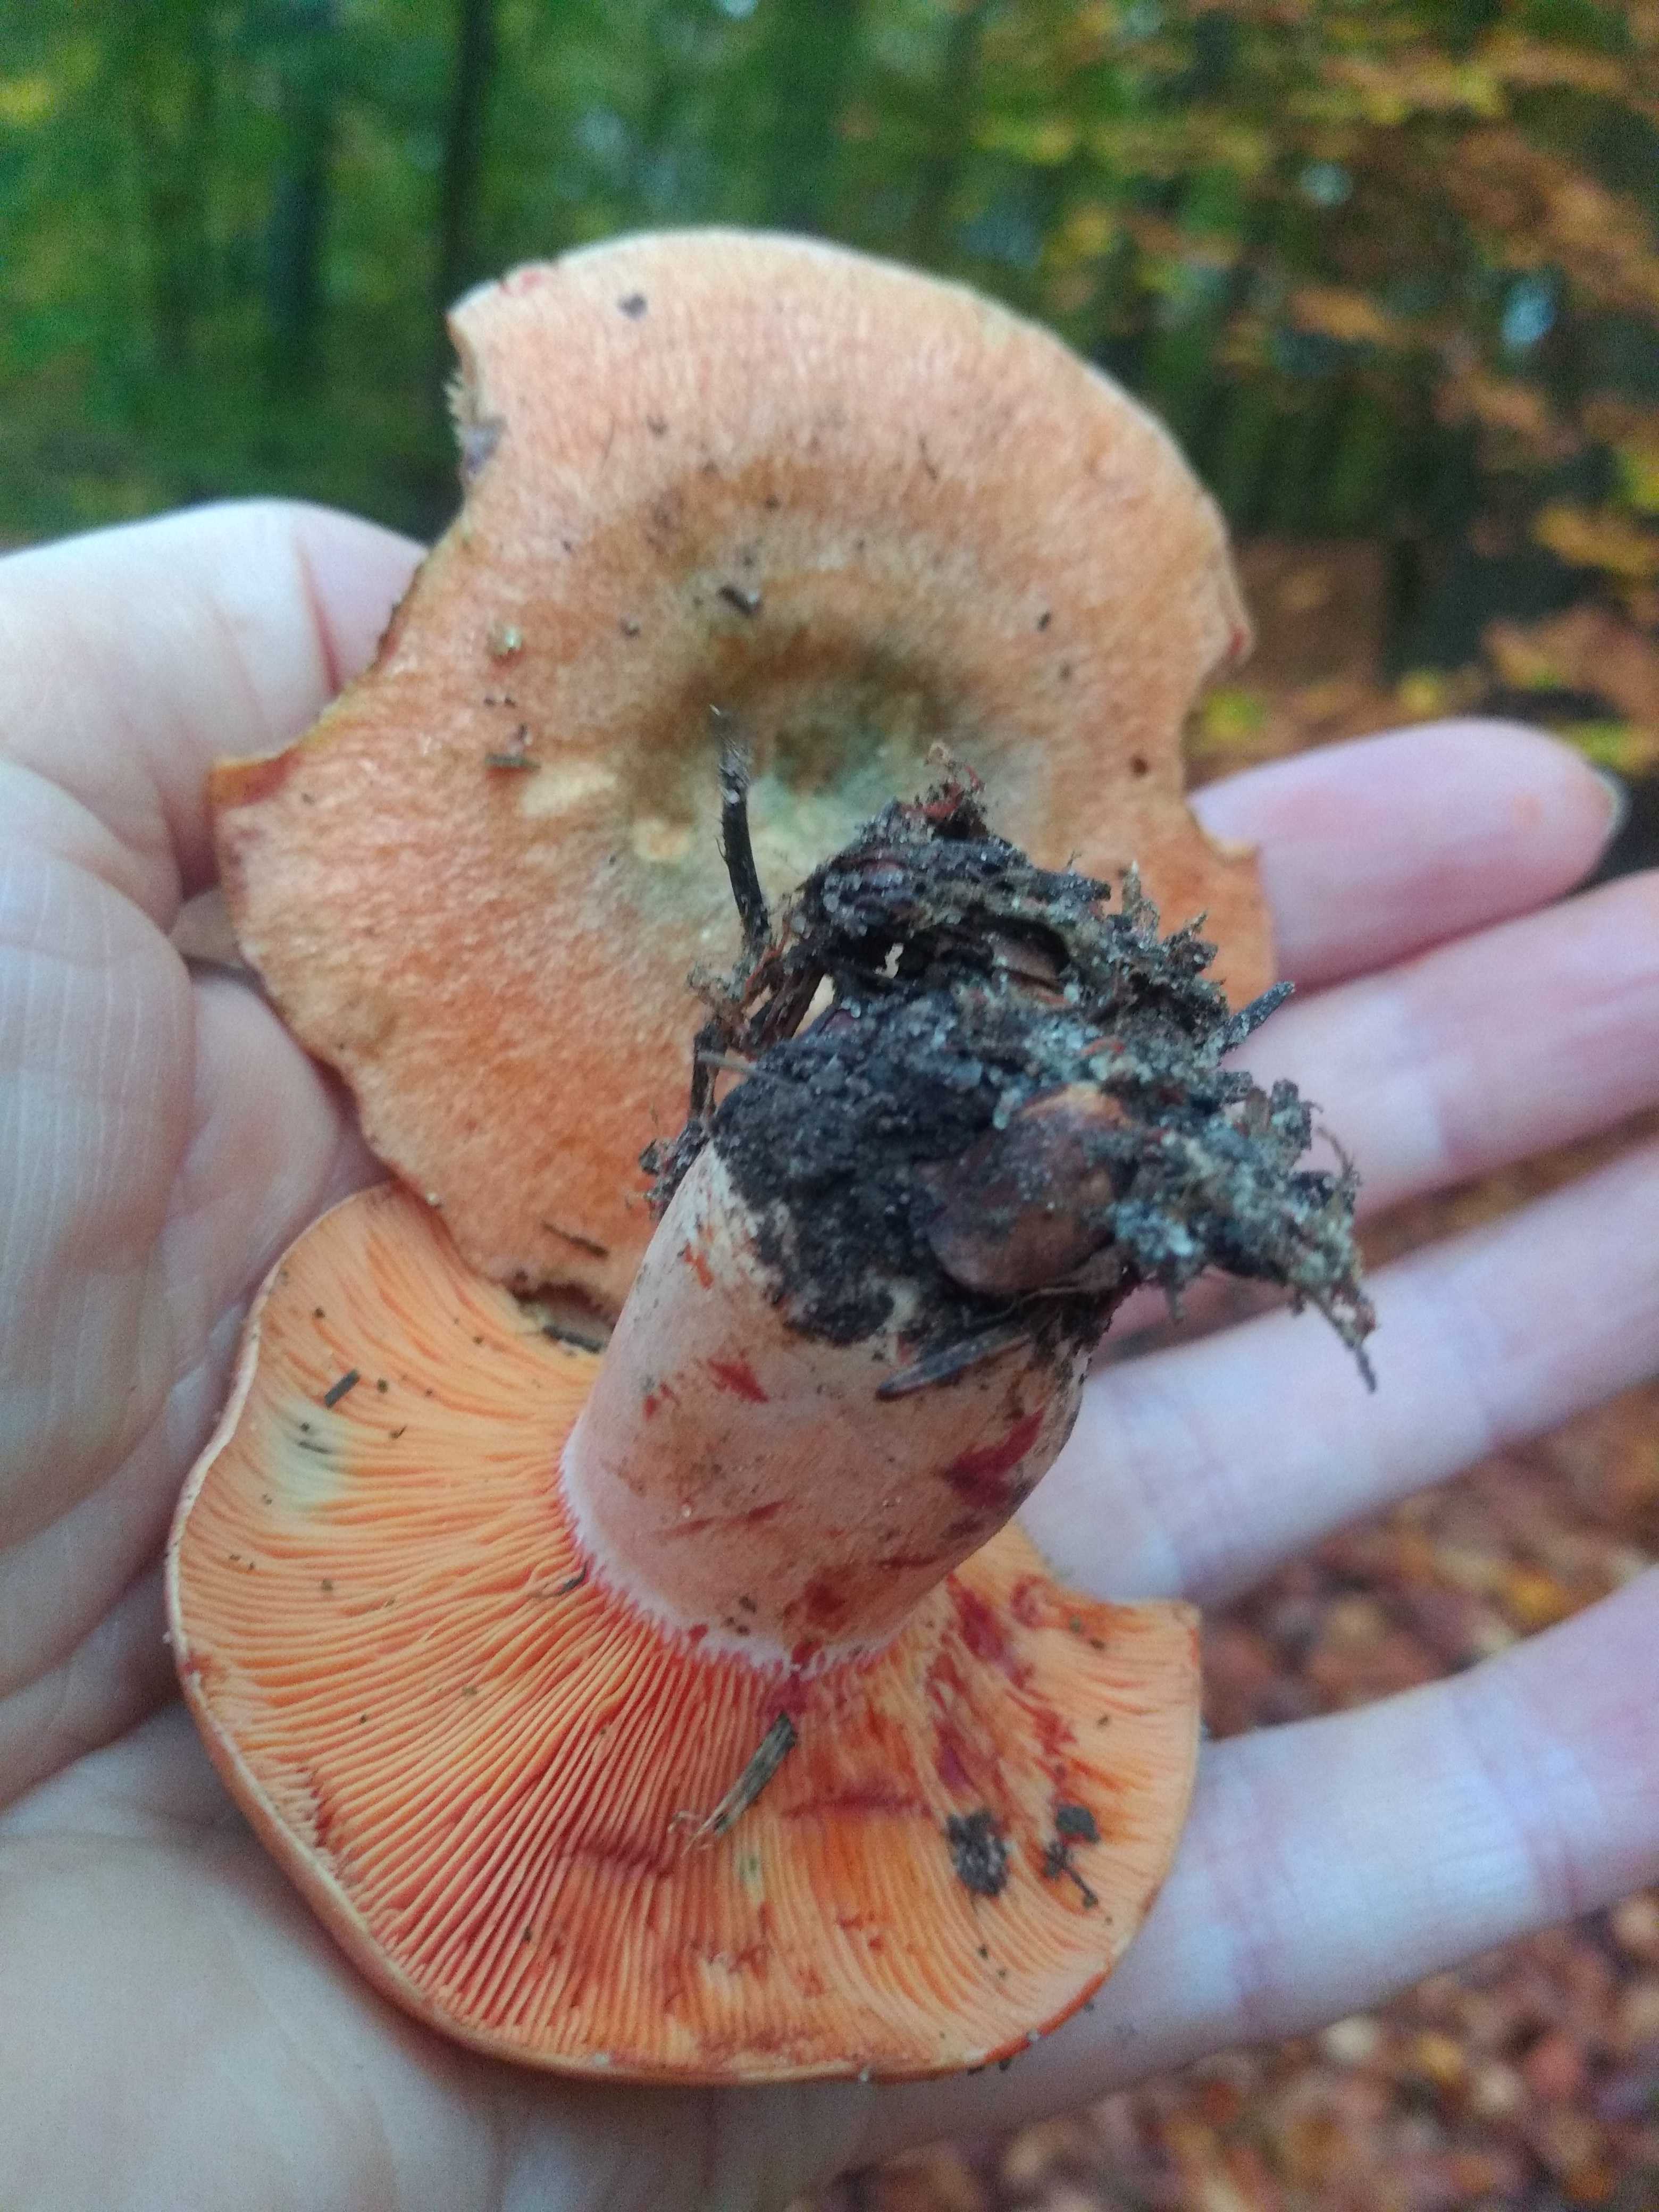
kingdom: Fungi
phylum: Basidiomycota
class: Agaricomycetes
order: Russulales
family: Russulaceae
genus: Lactarius
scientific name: Lactarius deterrimus
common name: gran-mælkehat
